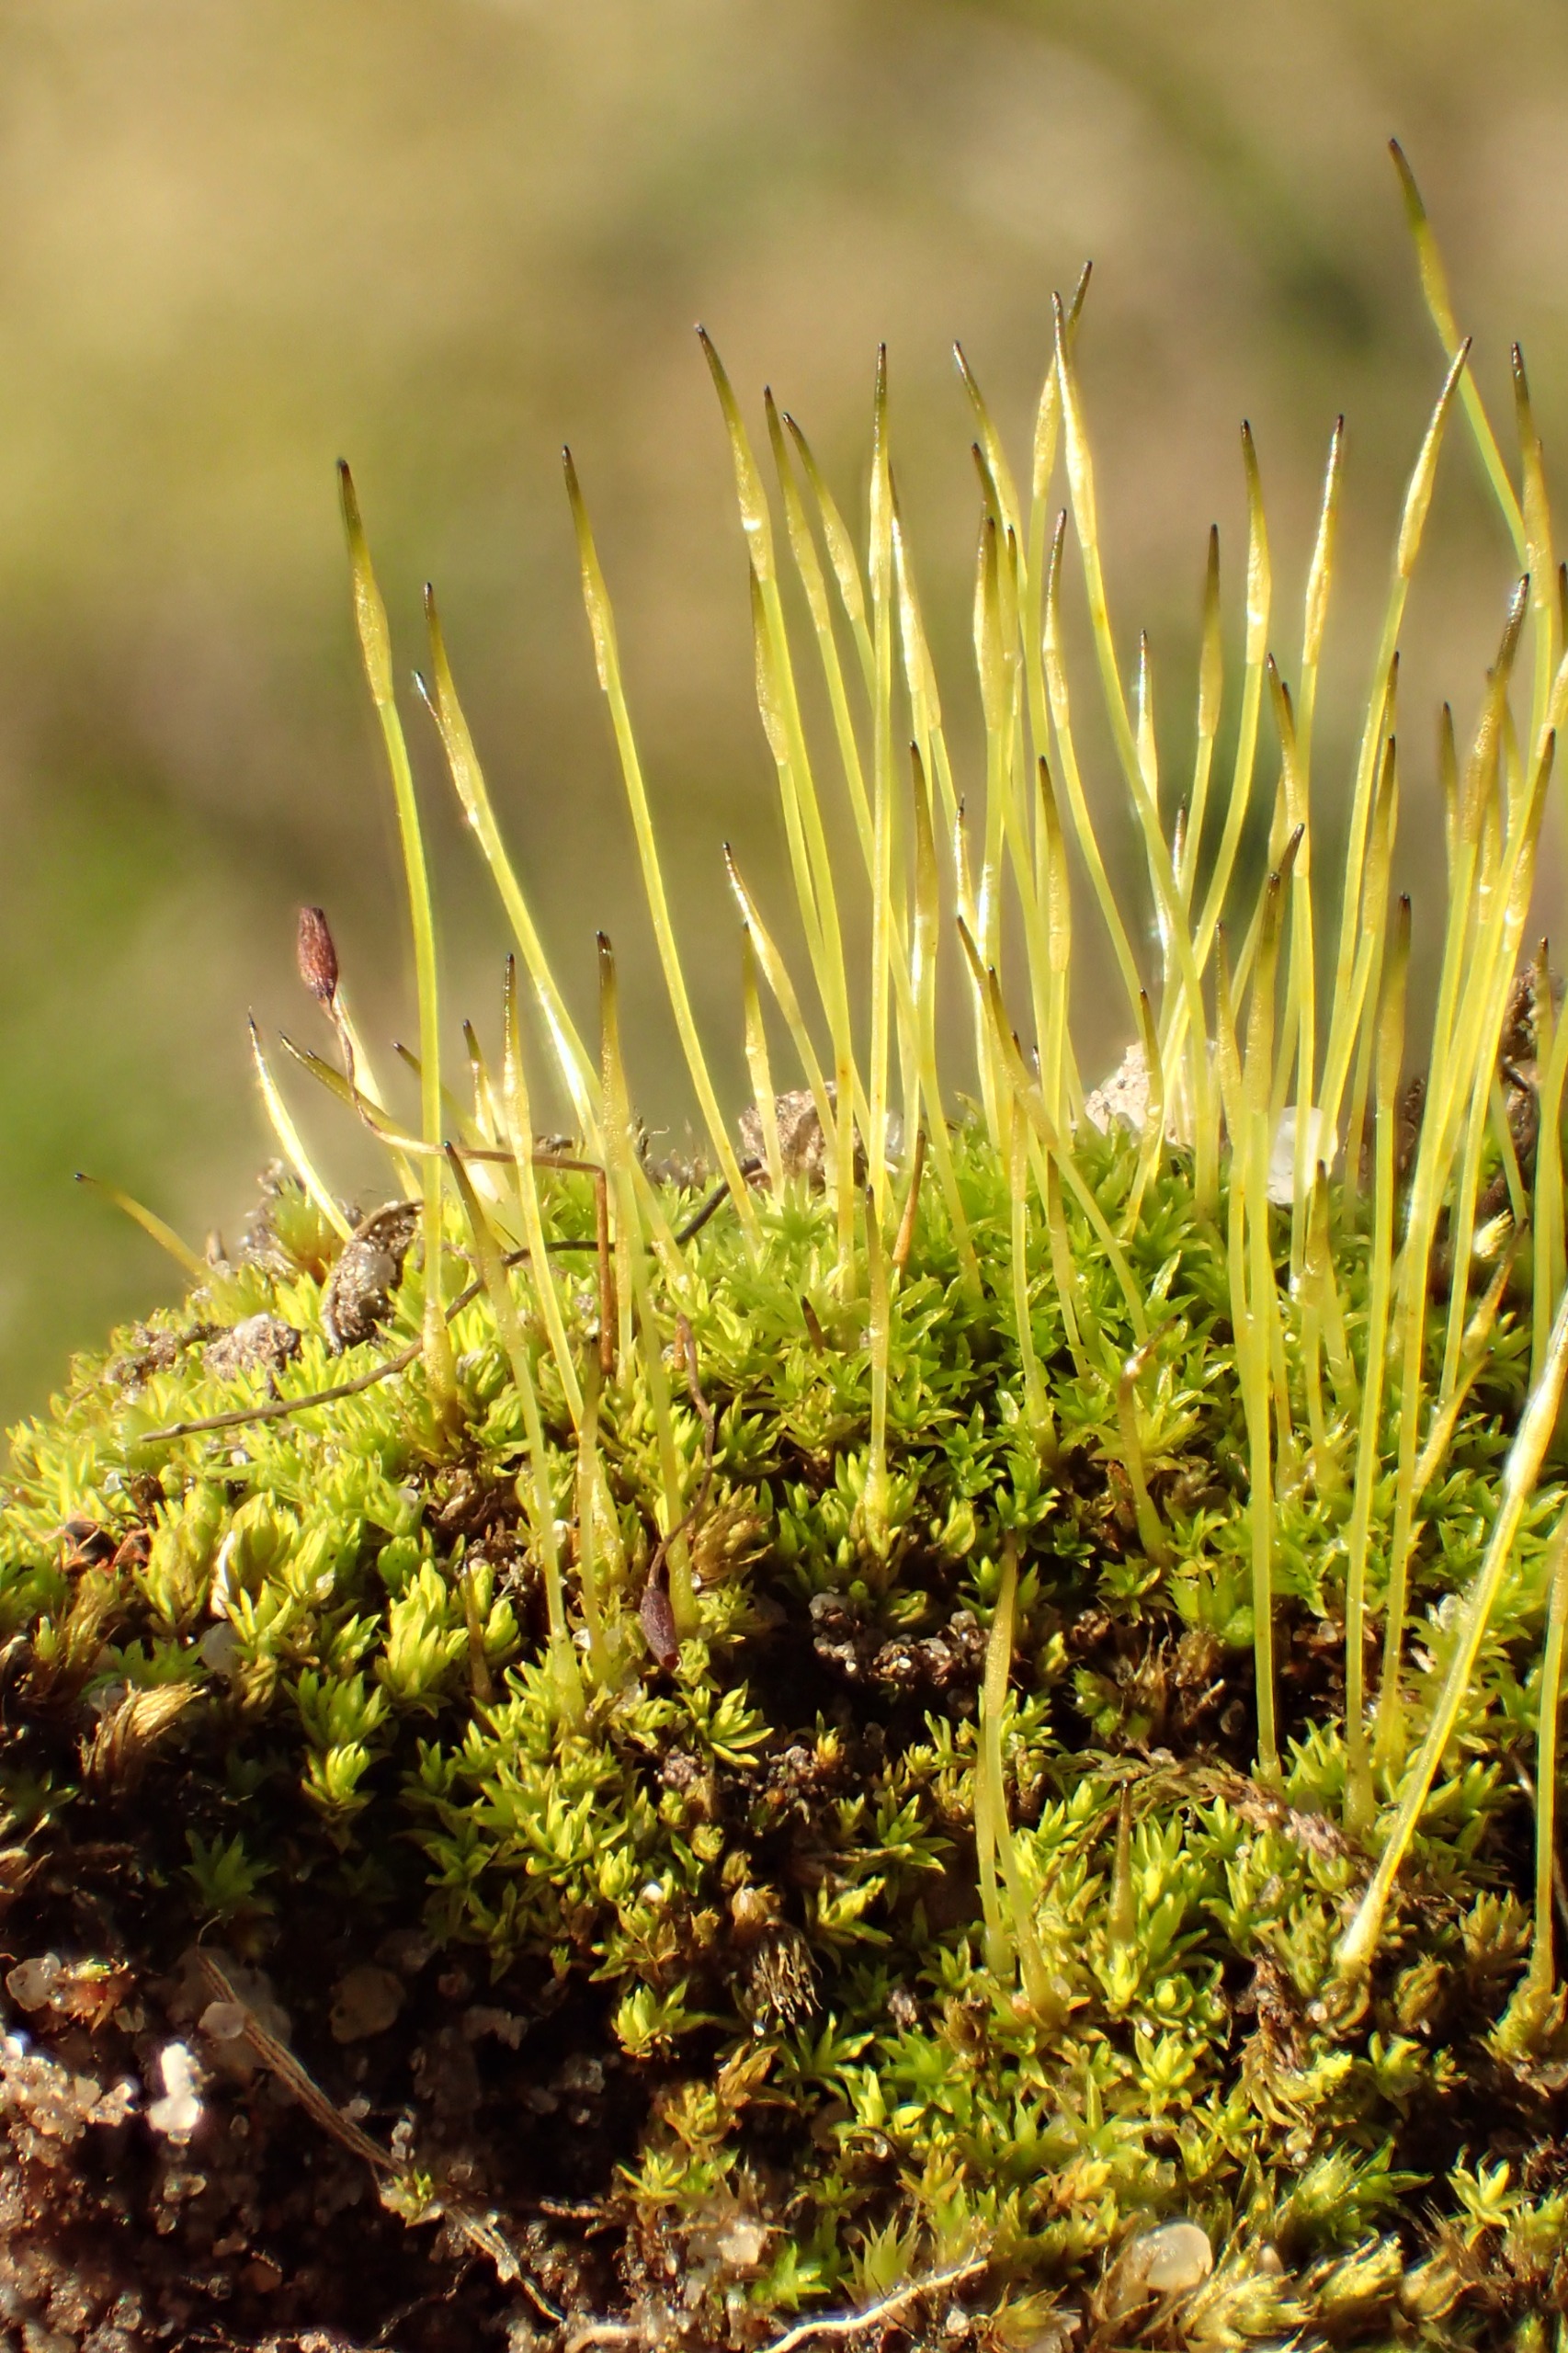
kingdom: Plantae
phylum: Bryophyta
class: Bryopsida
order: Pottiales
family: Pottiaceae
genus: Streblotrichum
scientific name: Streblotrichum convolutum
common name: Violet snohår
